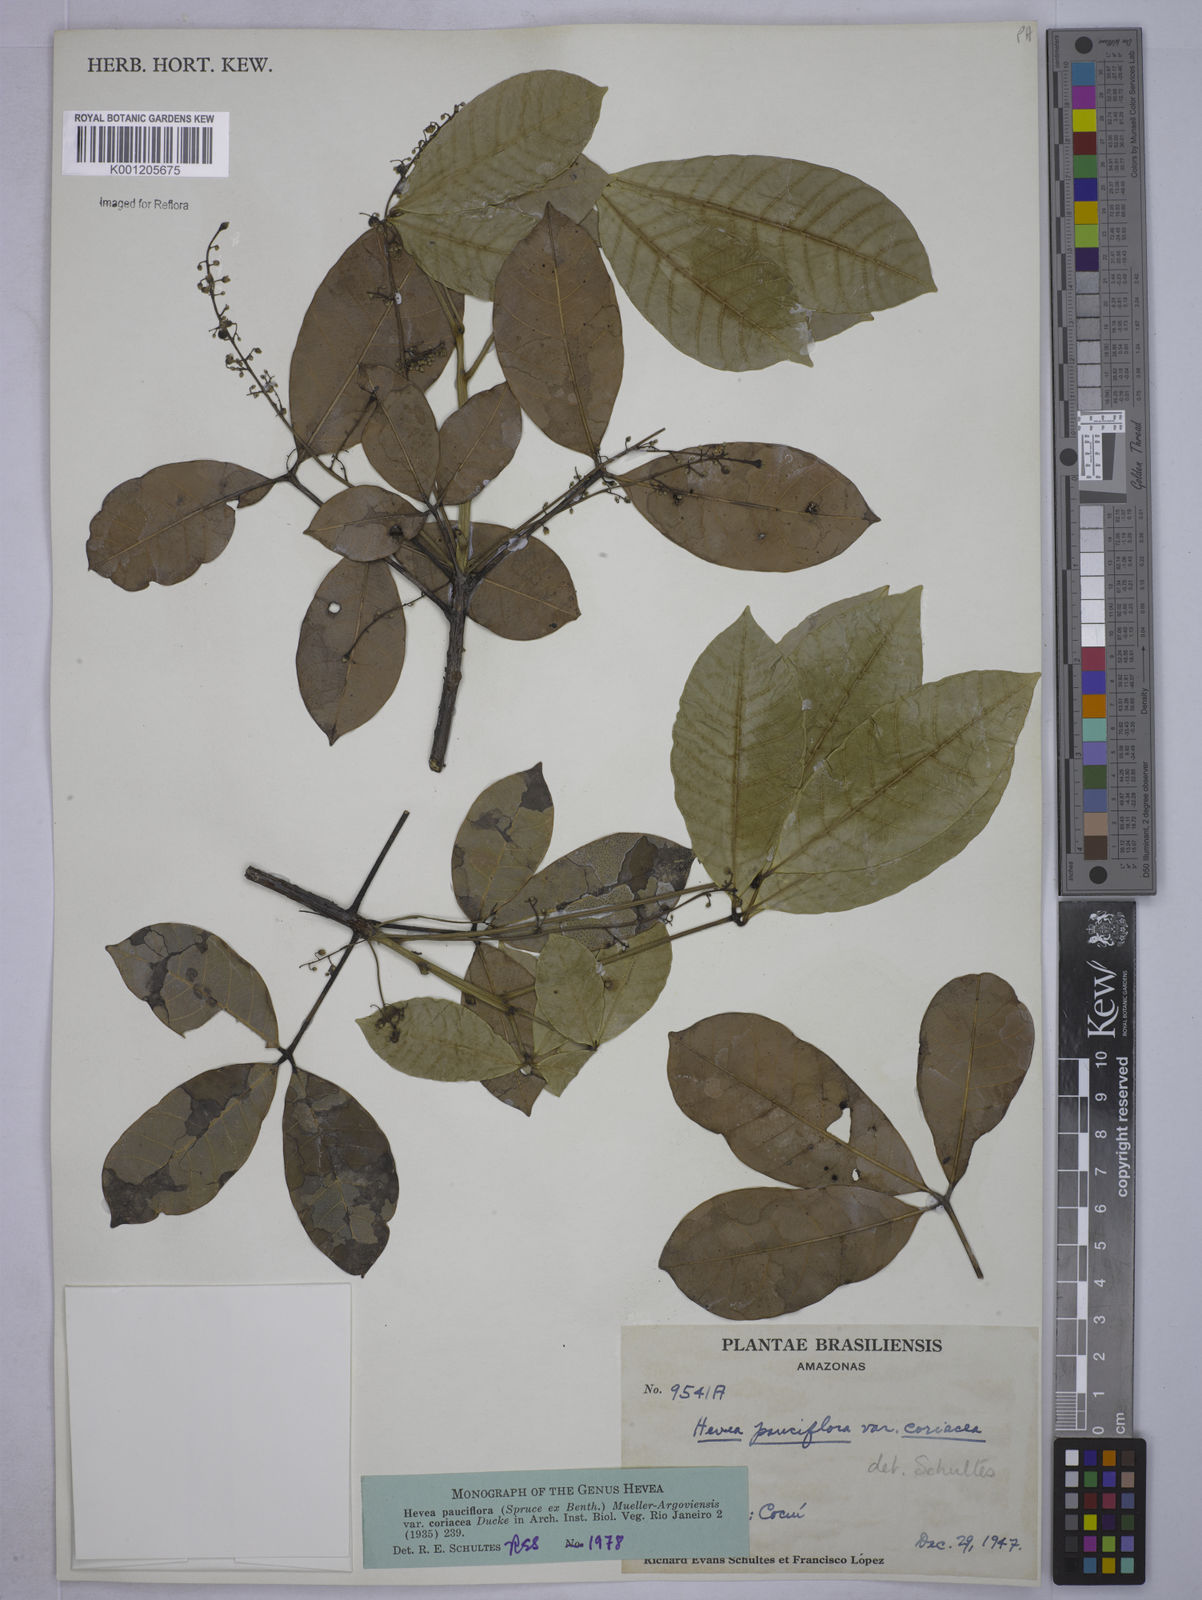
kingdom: Plantae
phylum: Tracheophyta
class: Magnoliopsida
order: Malpighiales
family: Euphorbiaceae
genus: Hevea
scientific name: Hevea pauciflora
